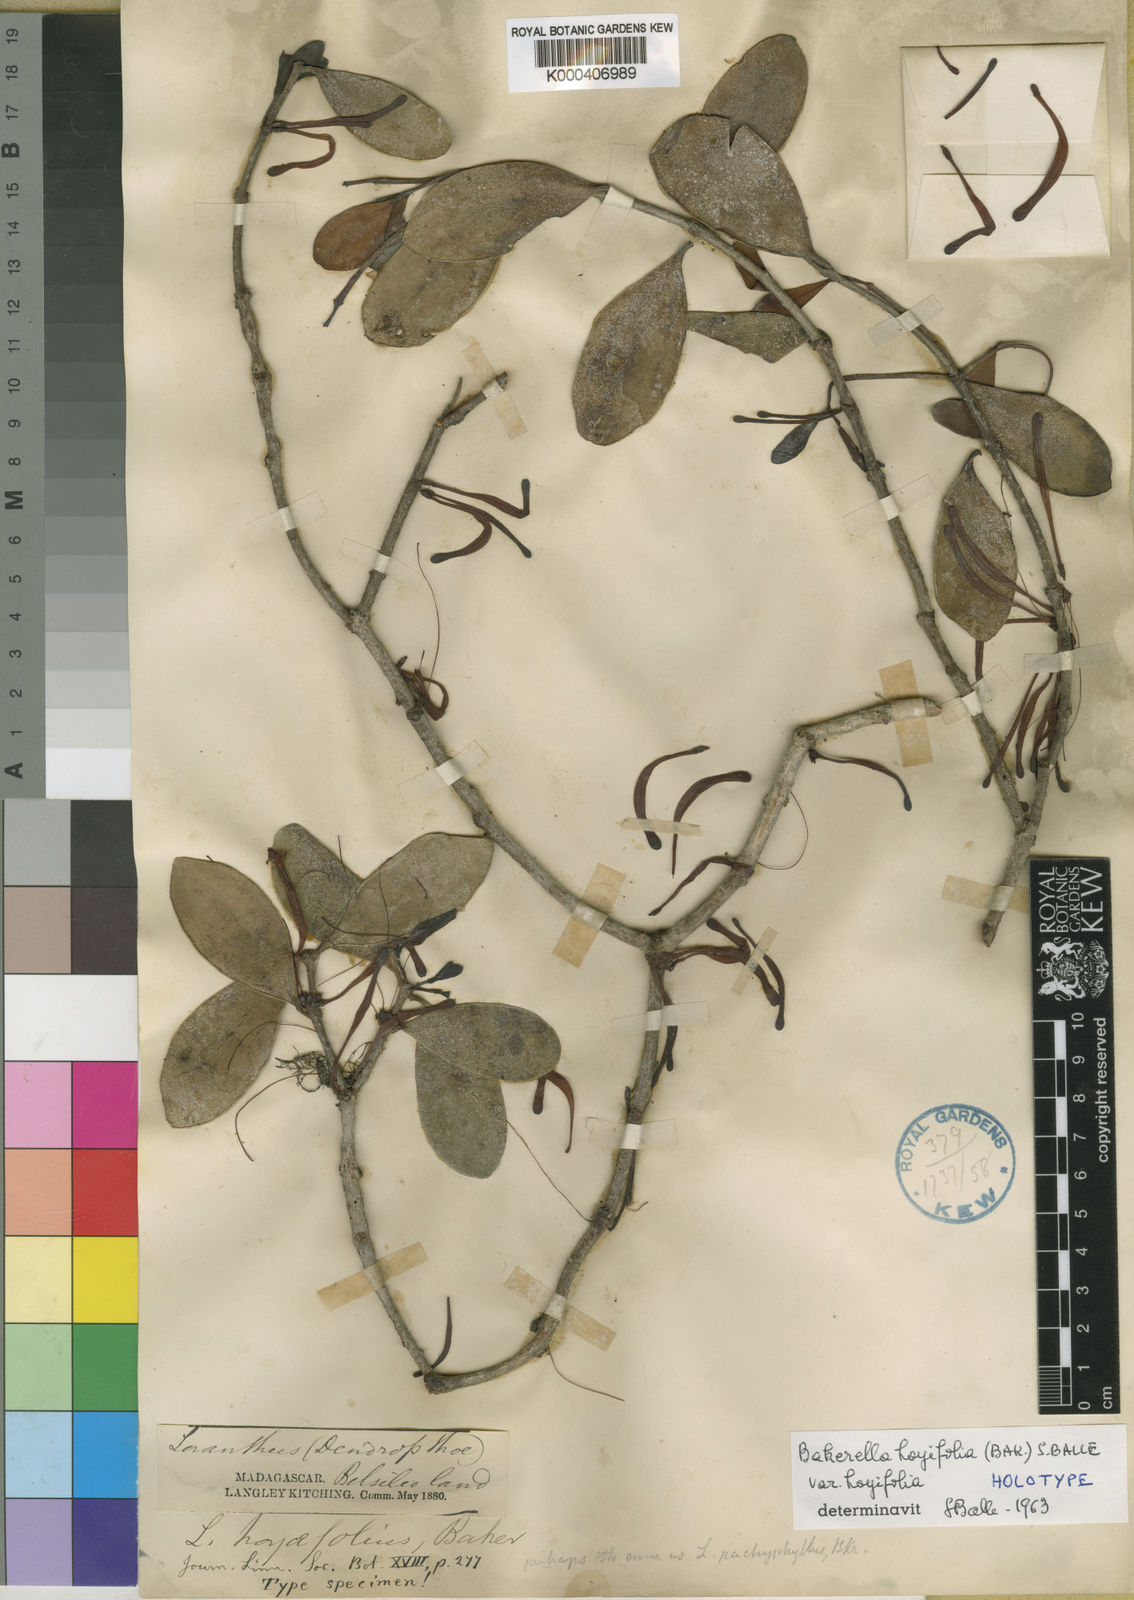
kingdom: Plantae
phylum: Tracheophyta
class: Magnoliopsida
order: Santalales
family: Loranthaceae
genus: Bakerella
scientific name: Bakerella hoyifolia
